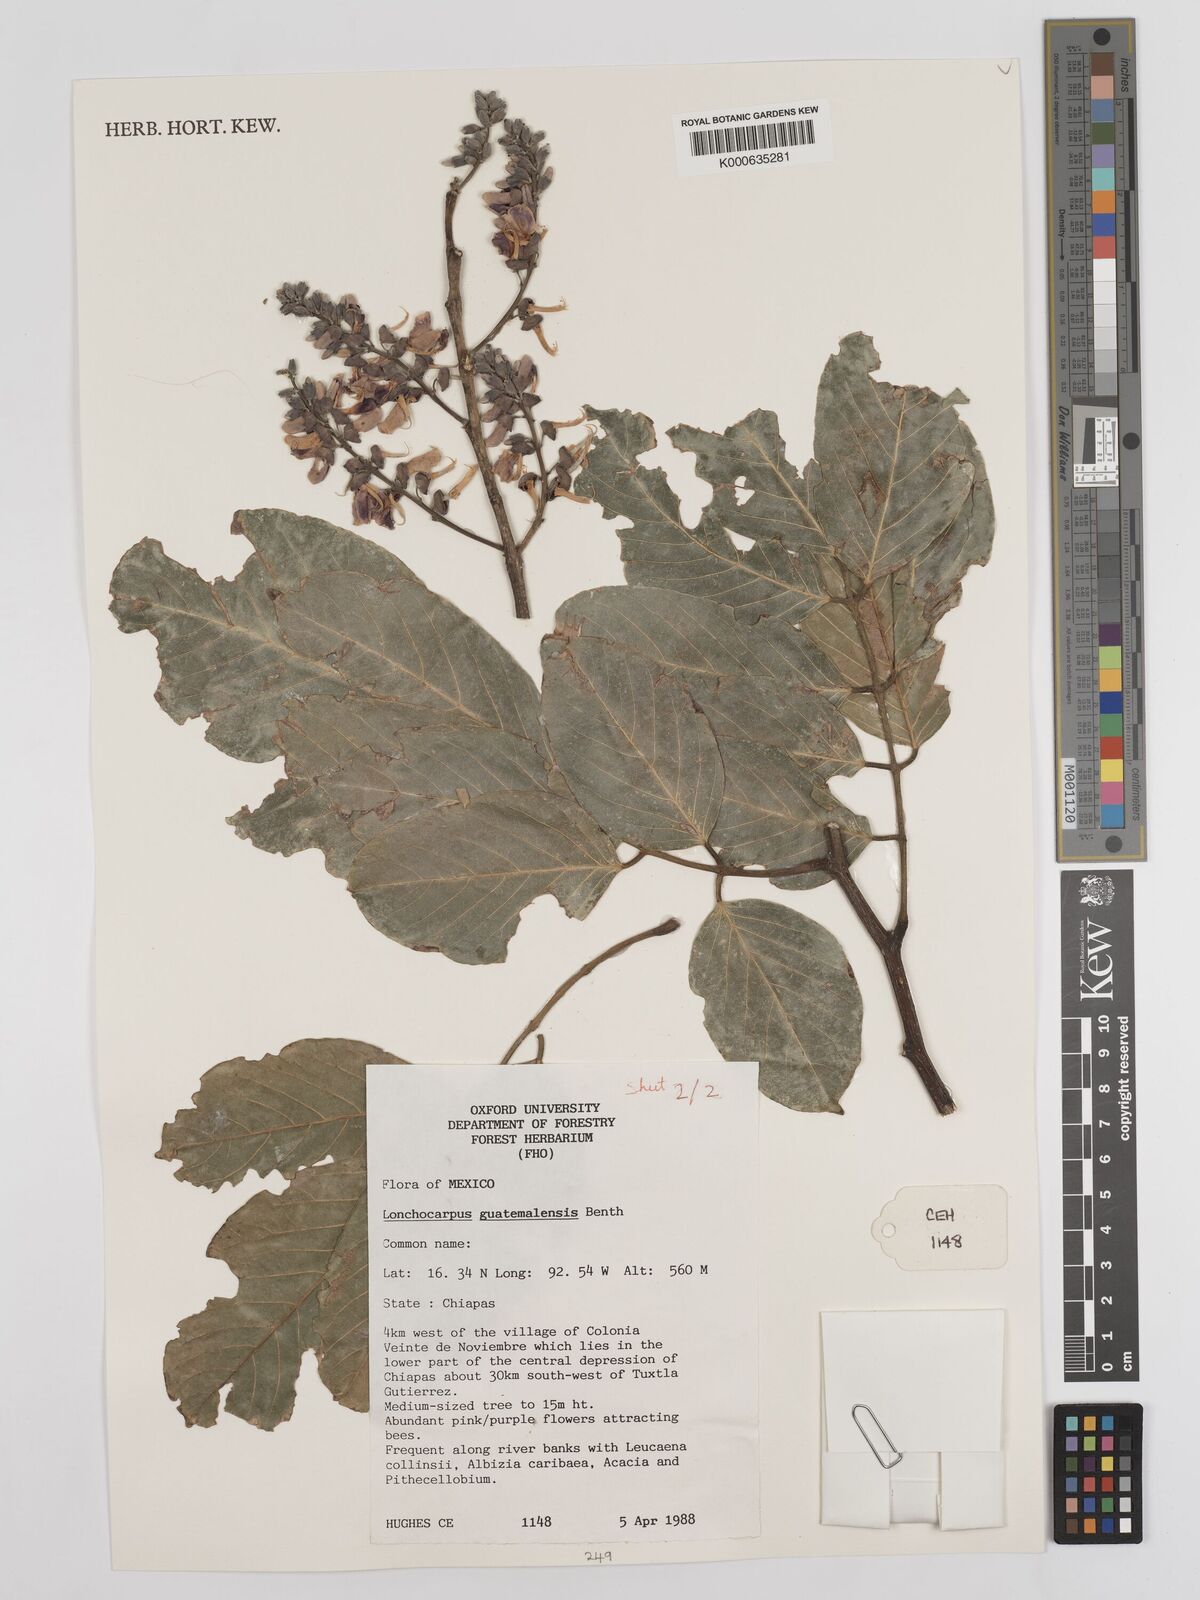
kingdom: Plantae
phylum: Tracheophyta
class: Magnoliopsida
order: Fabales
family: Fabaceae
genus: Lonchocarpus
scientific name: Lonchocarpus guatemalensis
